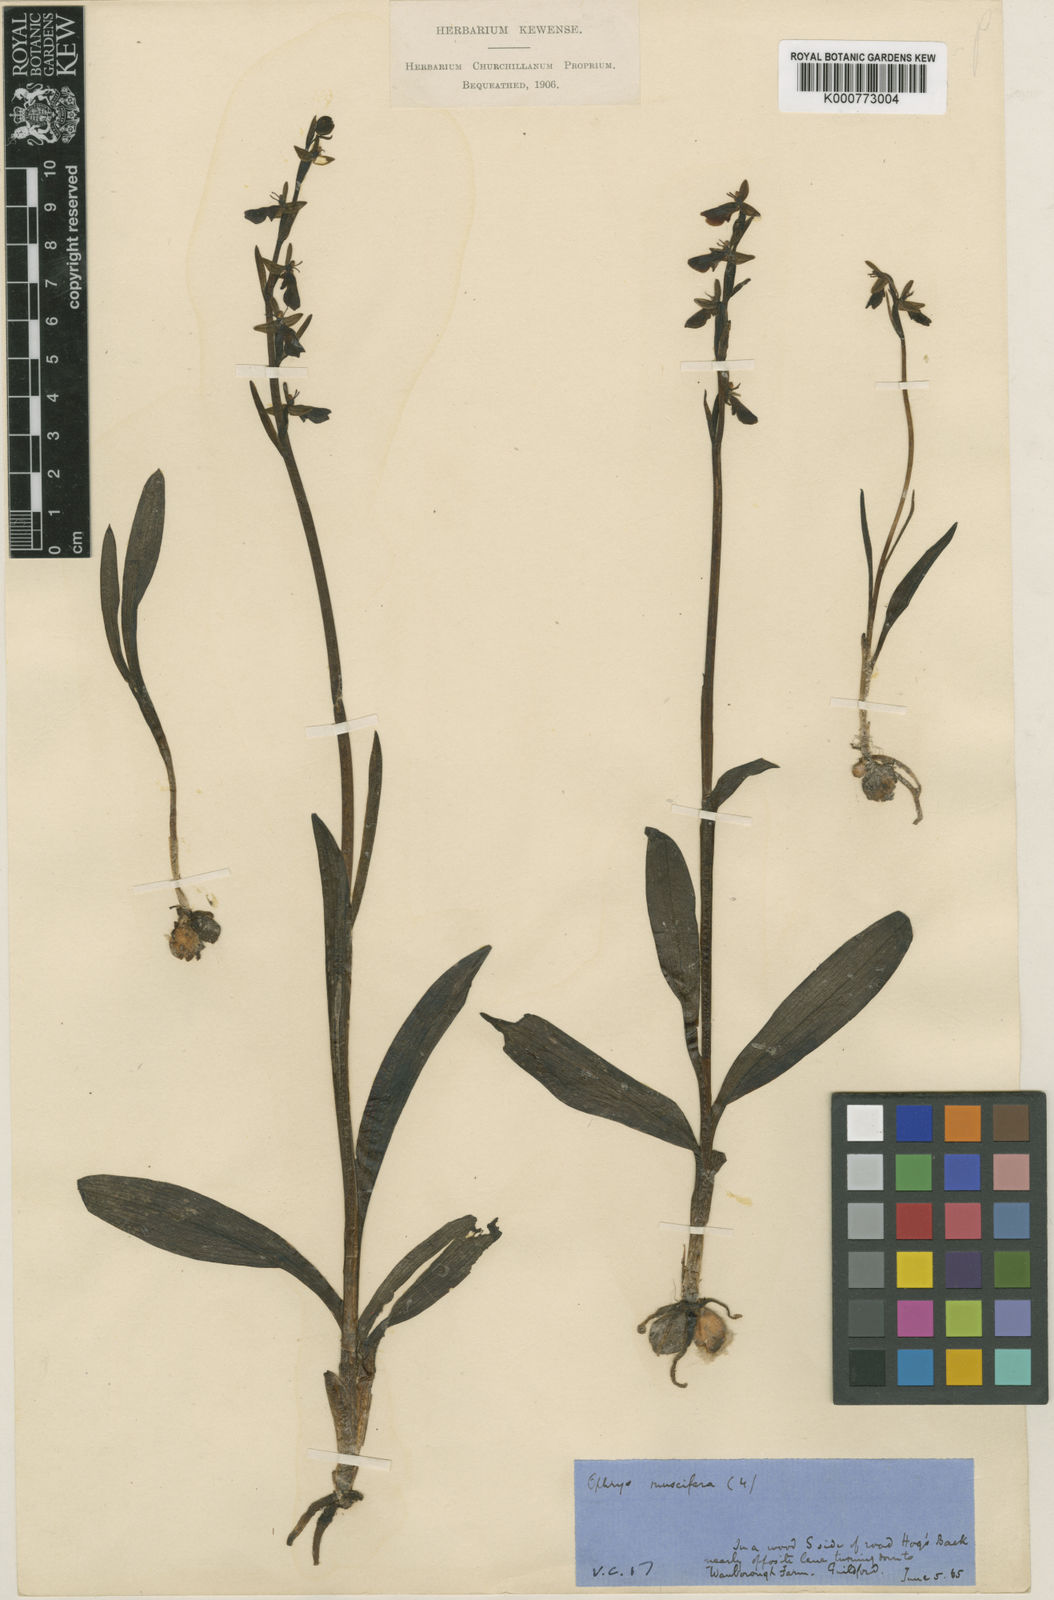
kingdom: Plantae
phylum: Tracheophyta
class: Liliopsida
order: Asparagales
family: Orchidaceae
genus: Ophrys
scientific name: Ophrys insectifera
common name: Fly orchid
